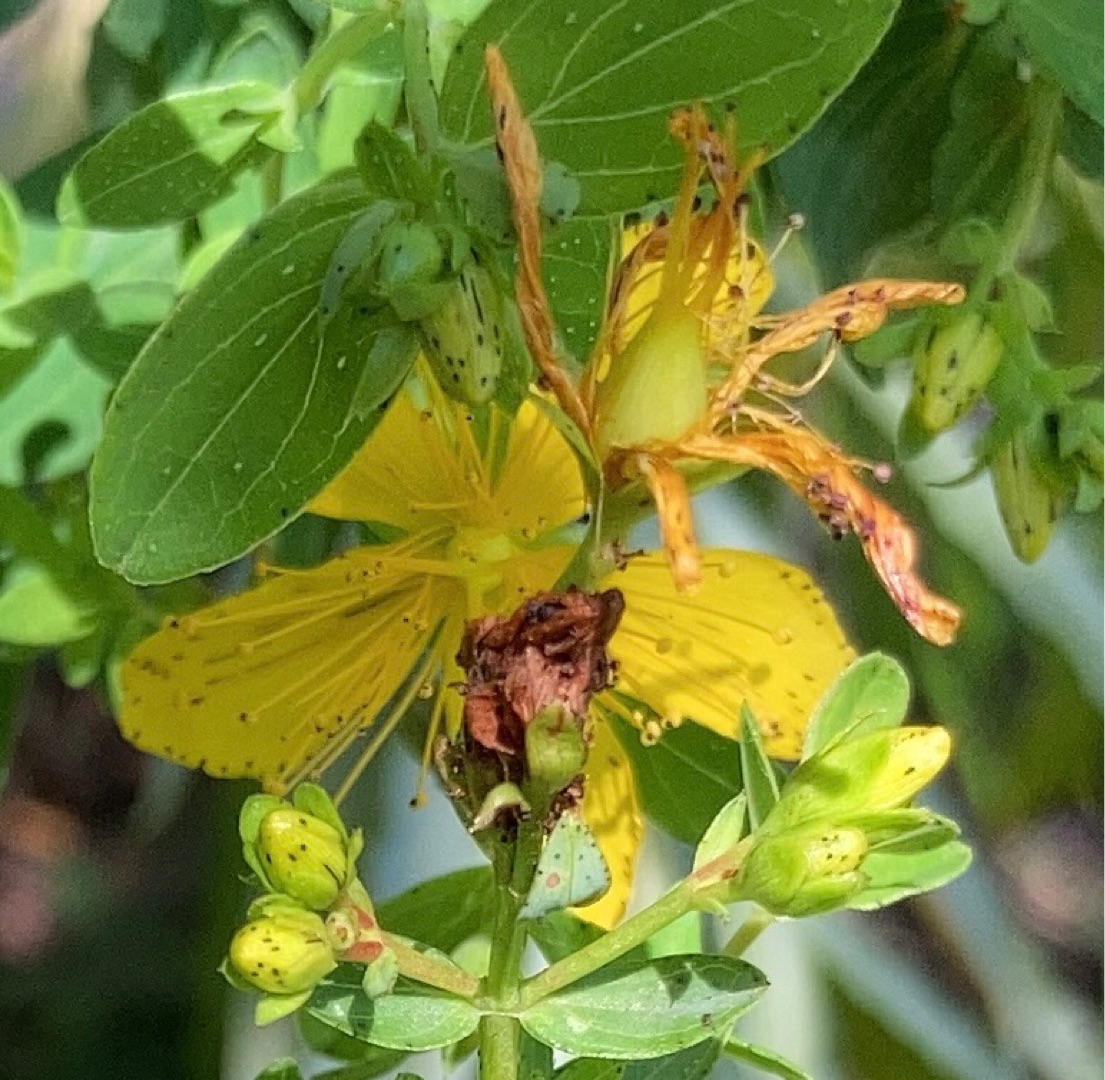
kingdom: Plantae
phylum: Tracheophyta
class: Magnoliopsida
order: Malpighiales
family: Hypericaceae
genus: Hypericum
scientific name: Hypericum maculatum
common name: Kantet perikon
